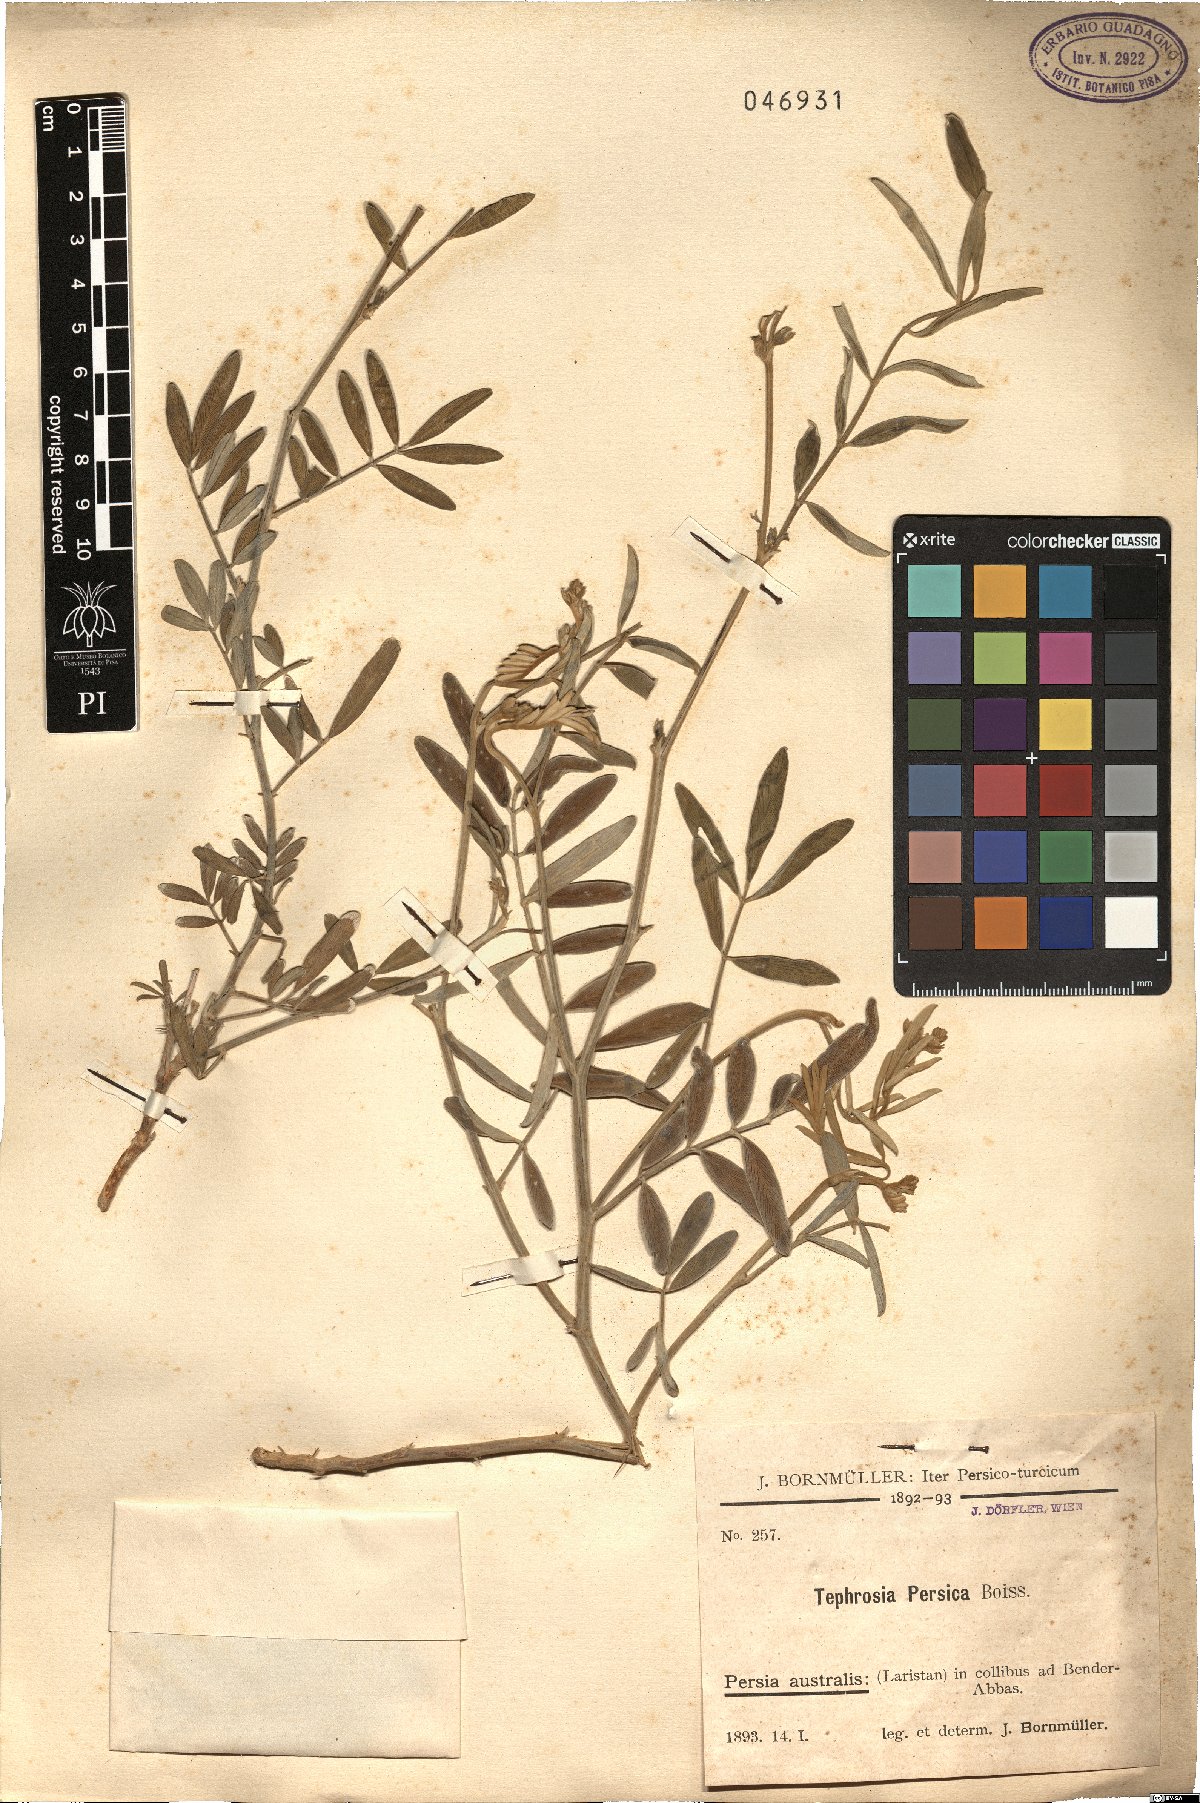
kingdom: Plantae
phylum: Tracheophyta
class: Magnoliopsida
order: Fabales
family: Fabaceae
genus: Tephrosia
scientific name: Tephrosia persica
